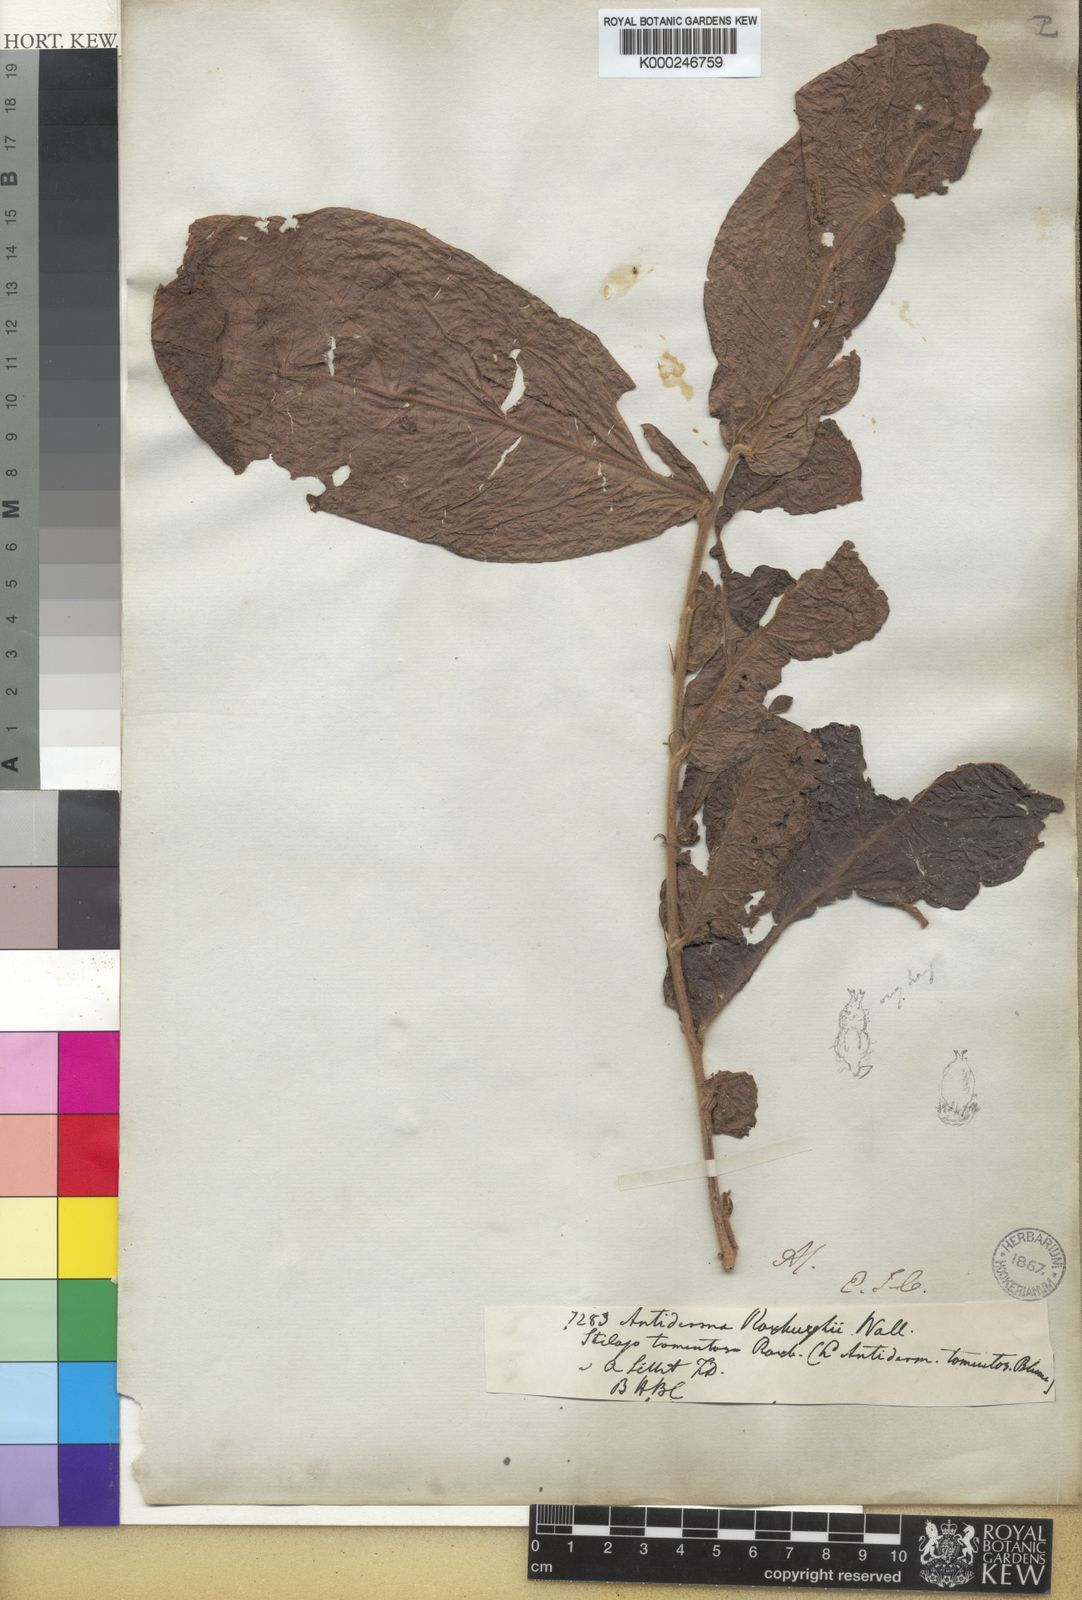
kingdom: Plantae
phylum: Tracheophyta
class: Magnoliopsida
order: Malpighiales
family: Phyllanthaceae
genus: Antidesma
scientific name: Antidesma roxburghii
